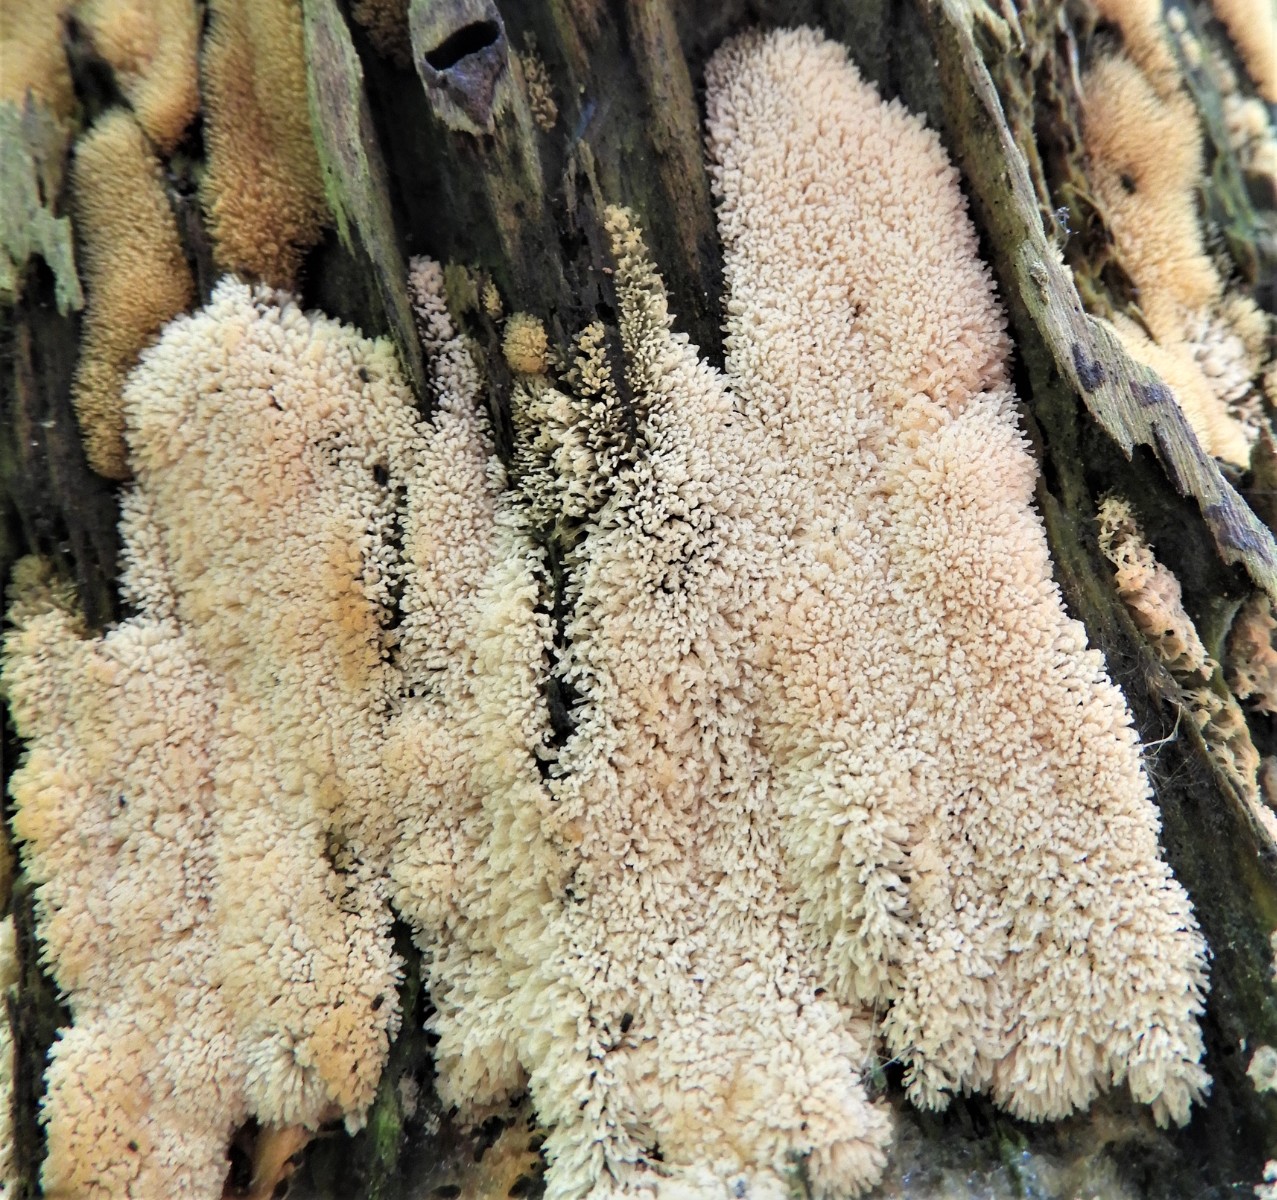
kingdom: Protozoa
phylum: Mycetozoa
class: Protosteliomycetes
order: Ceratiomyxales
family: Ceratiomyxaceae
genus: Ceratiomyxa
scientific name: Ceratiomyxa fruticulosa
